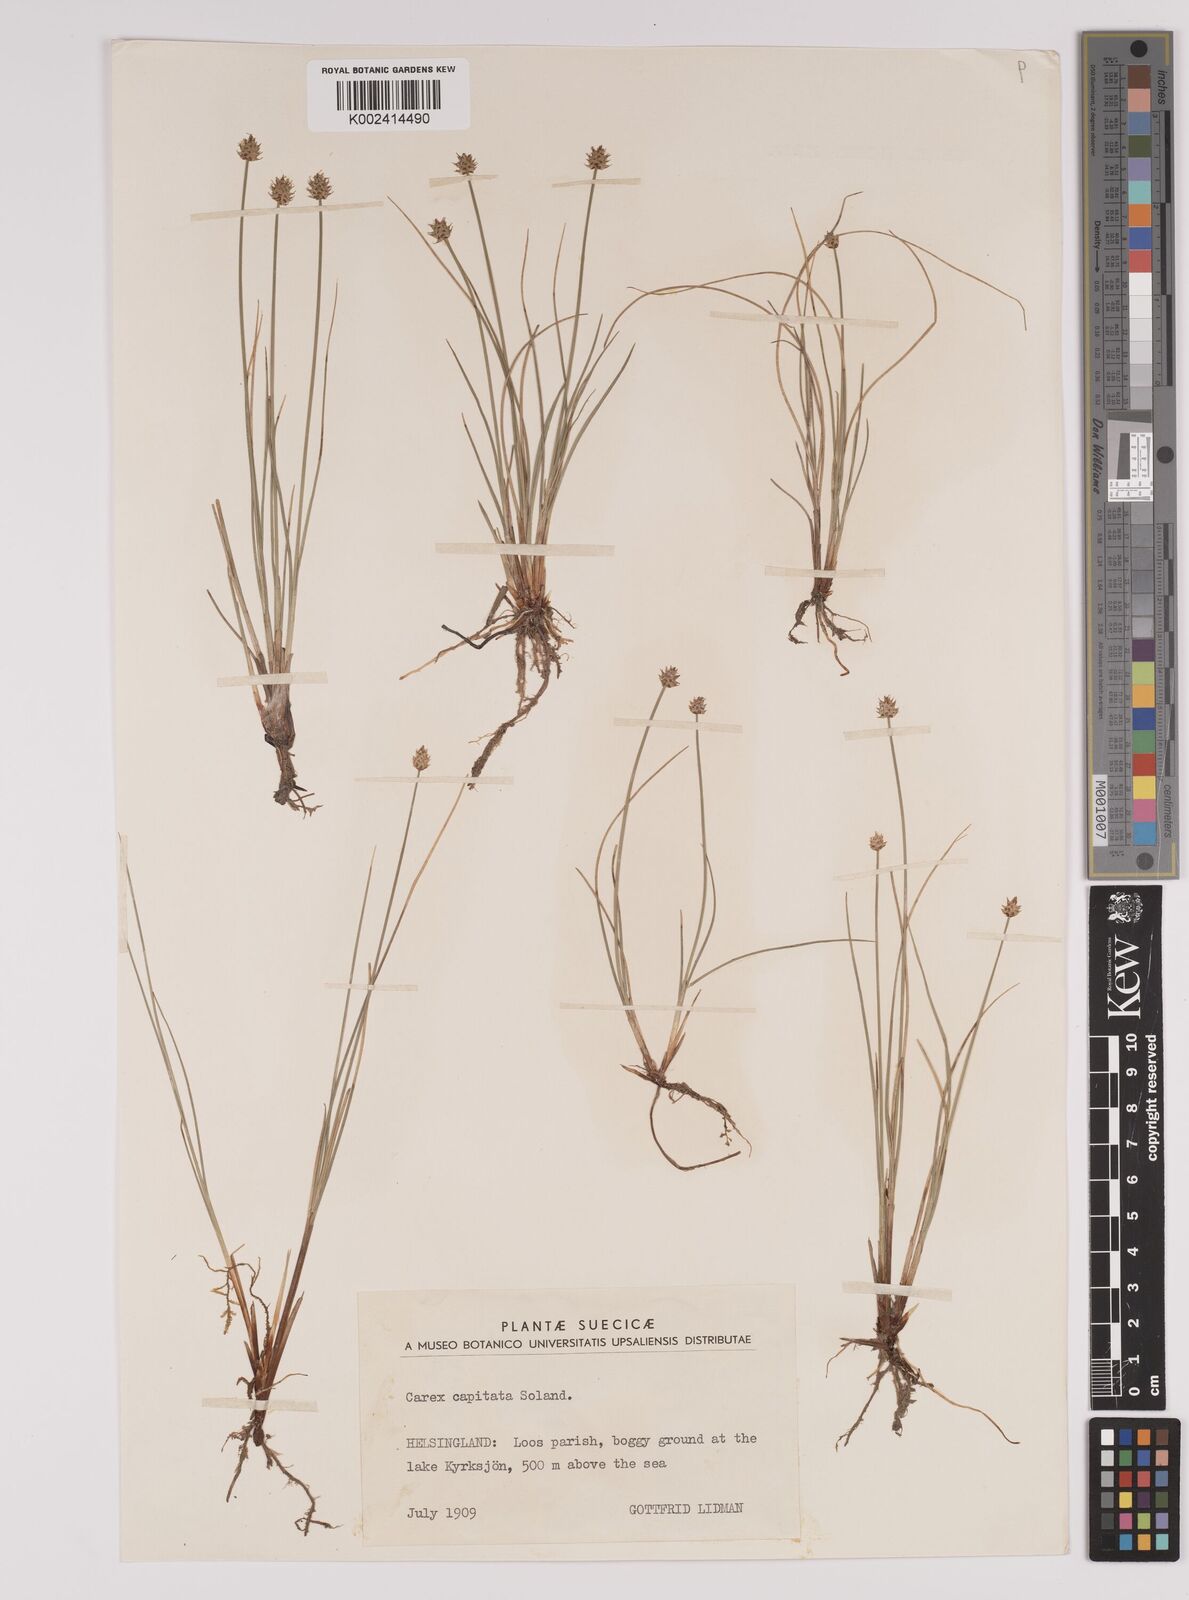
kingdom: Plantae
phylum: Tracheophyta
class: Liliopsida
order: Poales
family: Cyperaceae
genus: Carex
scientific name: Carex capitata
